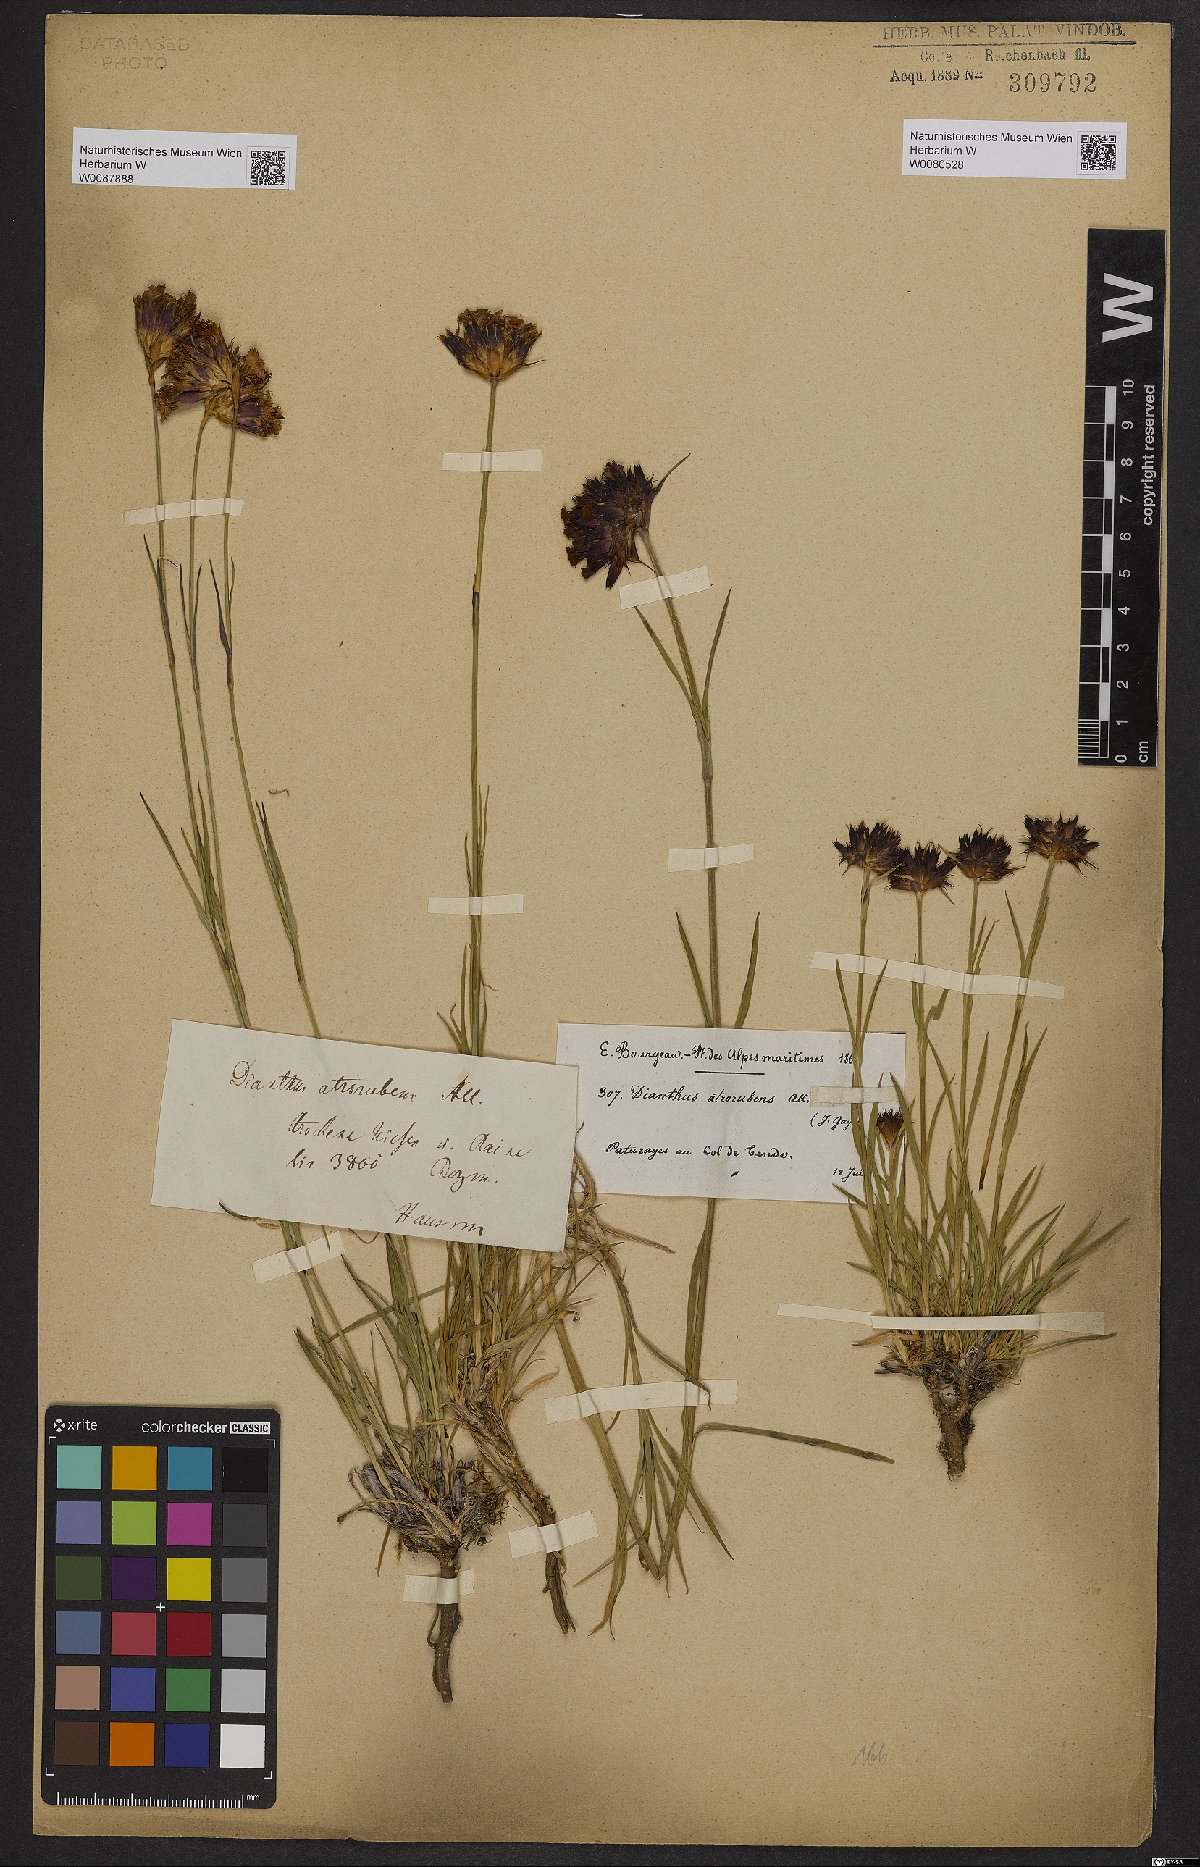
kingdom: Plantae
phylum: Tracheophyta
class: Magnoliopsida
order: Caryophyllales
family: Caryophyllaceae
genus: Dianthus
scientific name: Dianthus carthusianorum
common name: Carthusian pink
